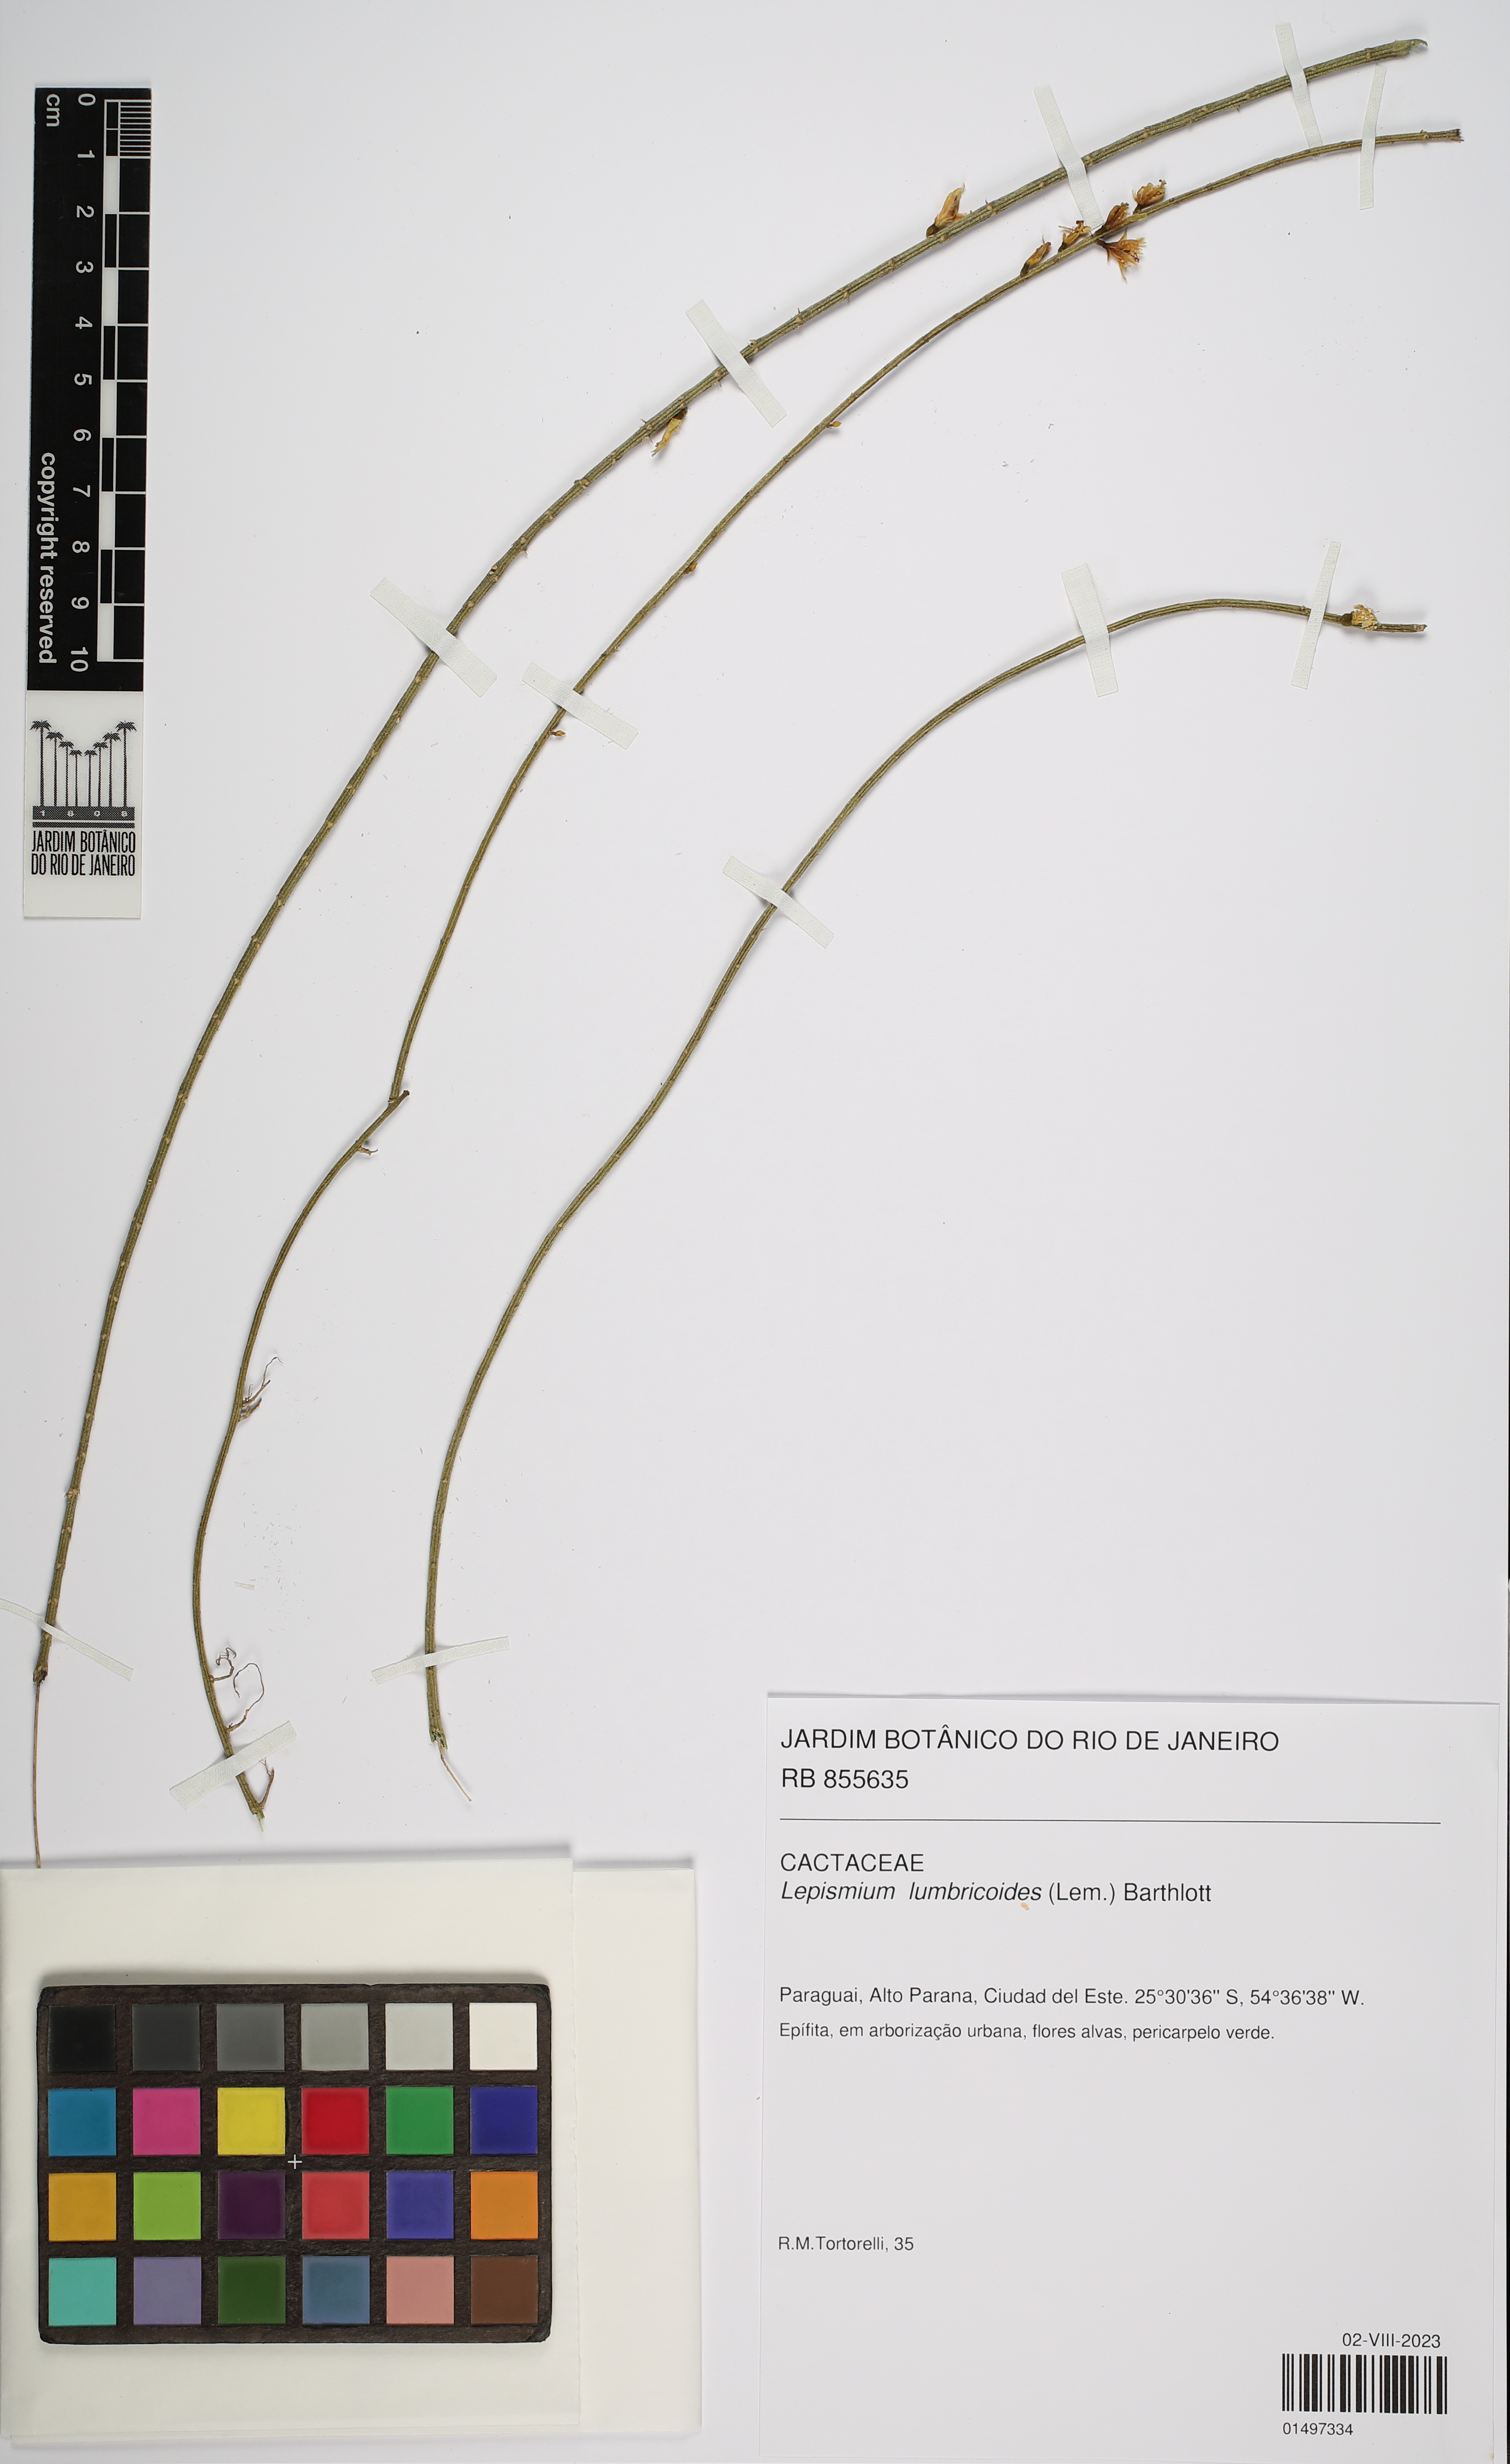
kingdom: Plantae
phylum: Tracheophyta
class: Magnoliopsida
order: Caryophyllales
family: Cactaceae
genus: Lepismium
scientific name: Lepismium lumbricoides
